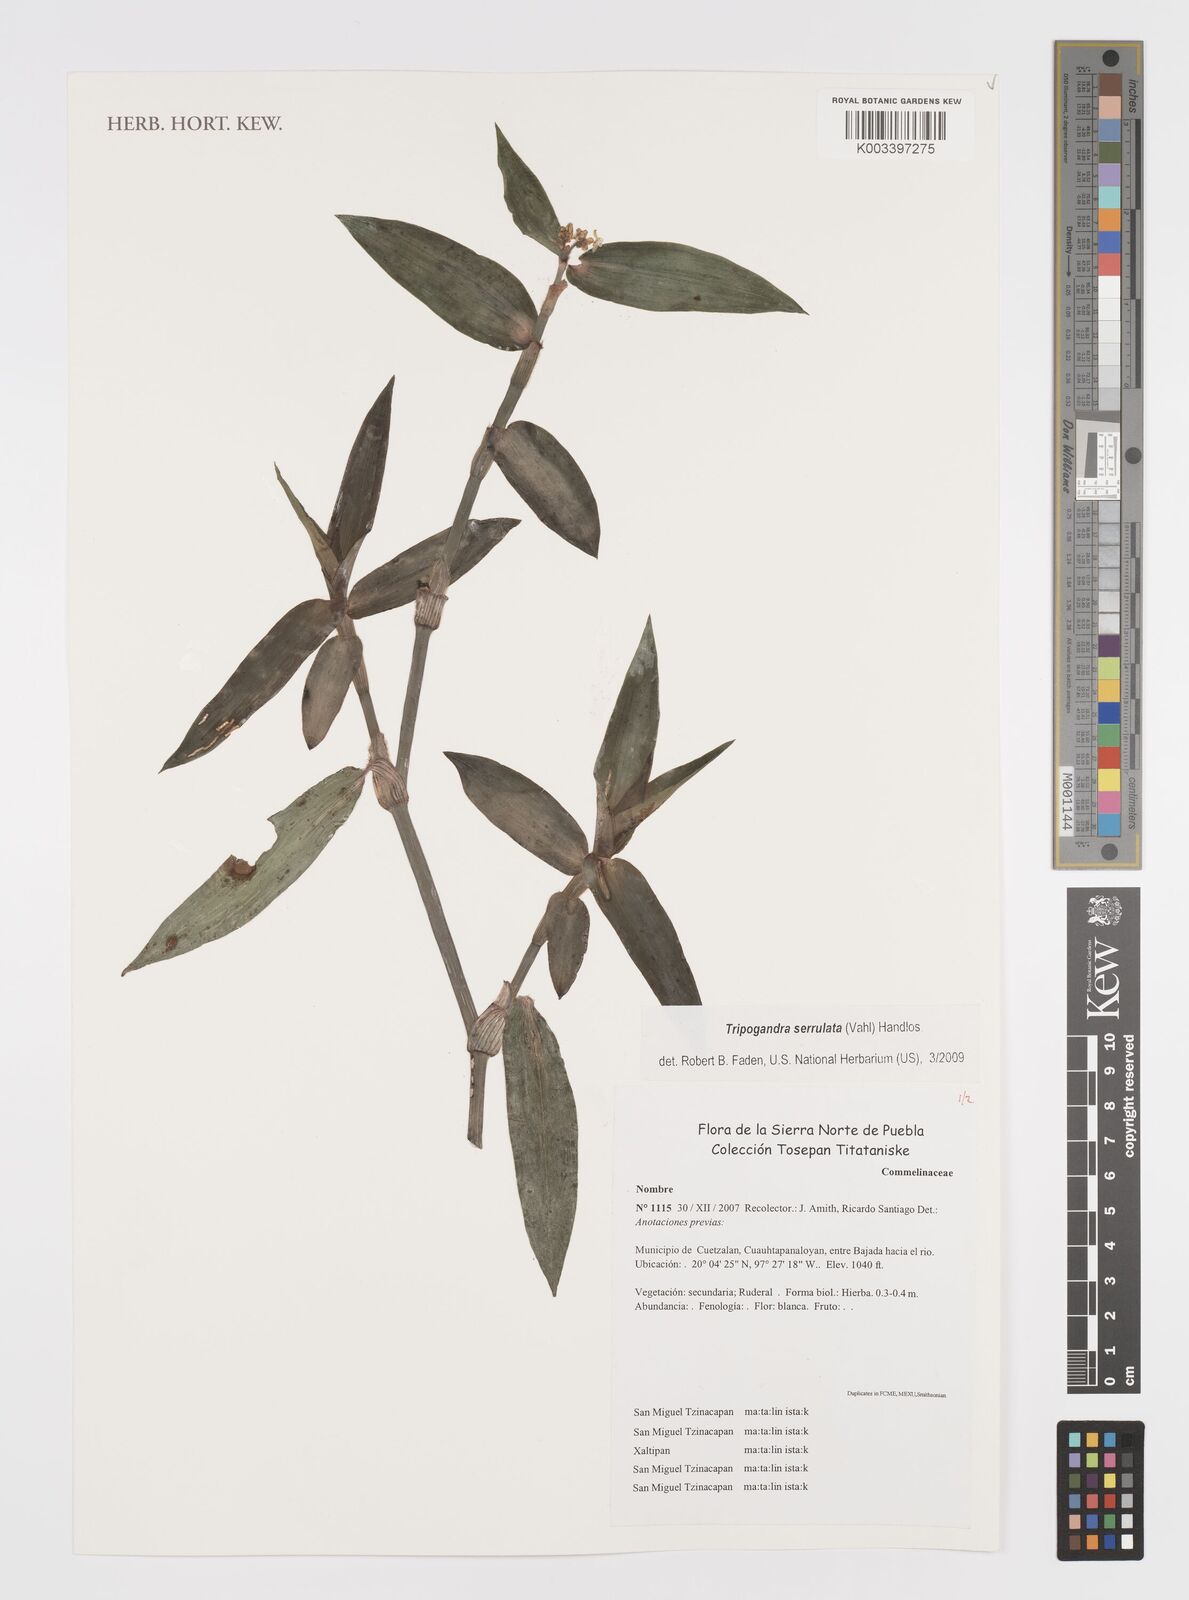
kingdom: Plantae
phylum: Tracheophyta
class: Liliopsida
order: Commelinales
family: Commelinaceae
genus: Callisia
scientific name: Callisia serrulata
